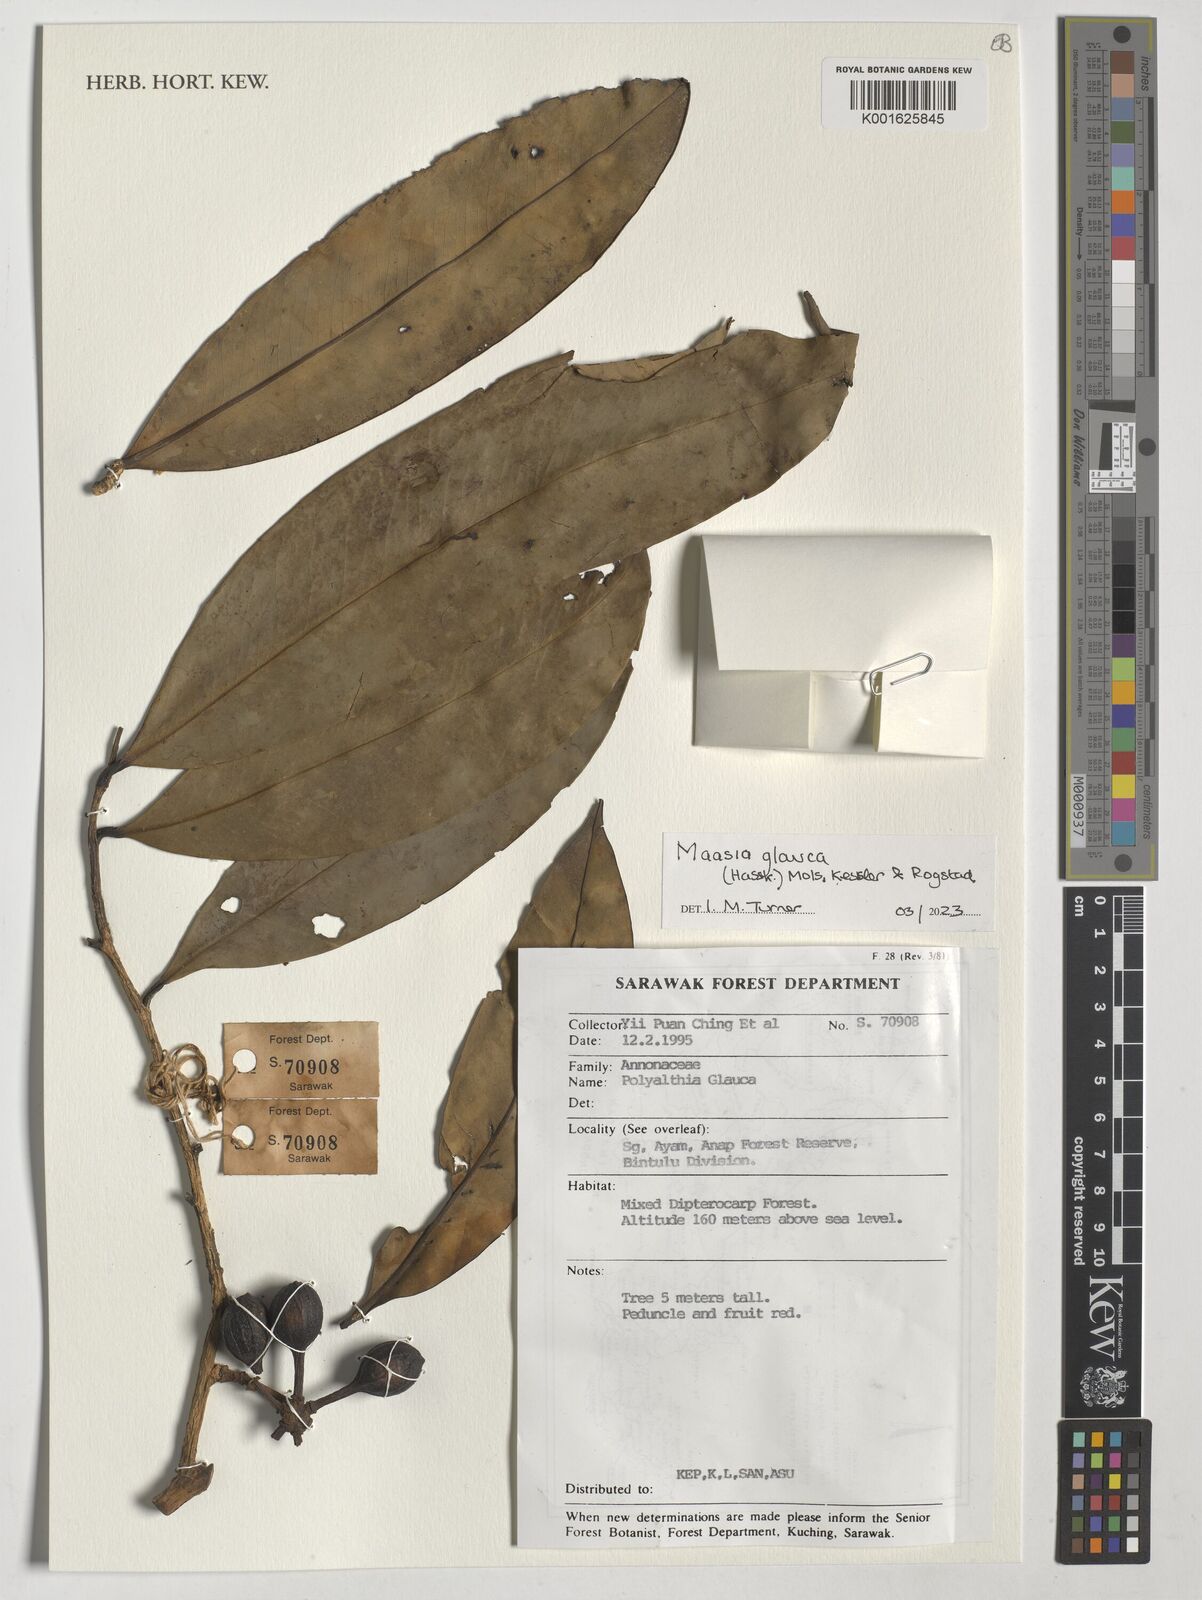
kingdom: Plantae
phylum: Tracheophyta
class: Magnoliopsida
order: Magnoliales
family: Annonaceae
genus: Maasia
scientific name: Maasia glauca
